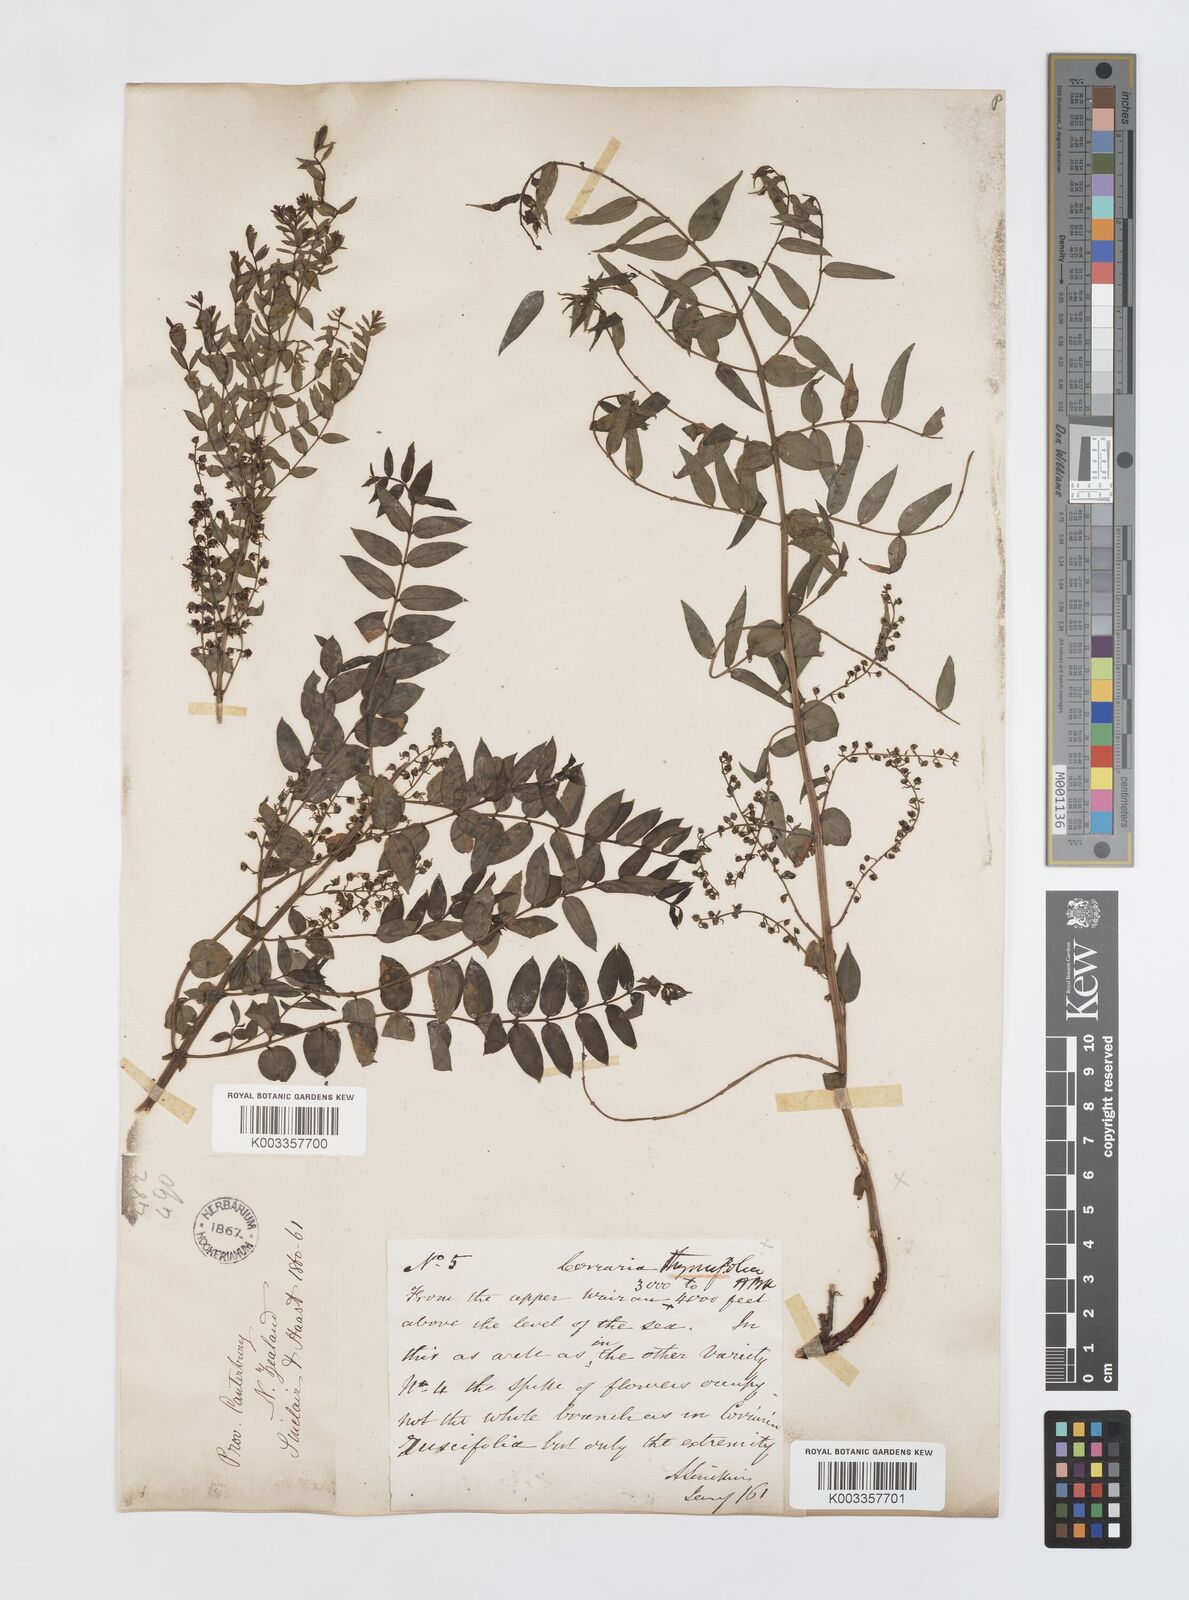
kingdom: Plantae
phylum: Tracheophyta
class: Magnoliopsida
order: Cucurbitales
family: Coriariaceae
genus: Coriaria
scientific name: Coriaria lurida
